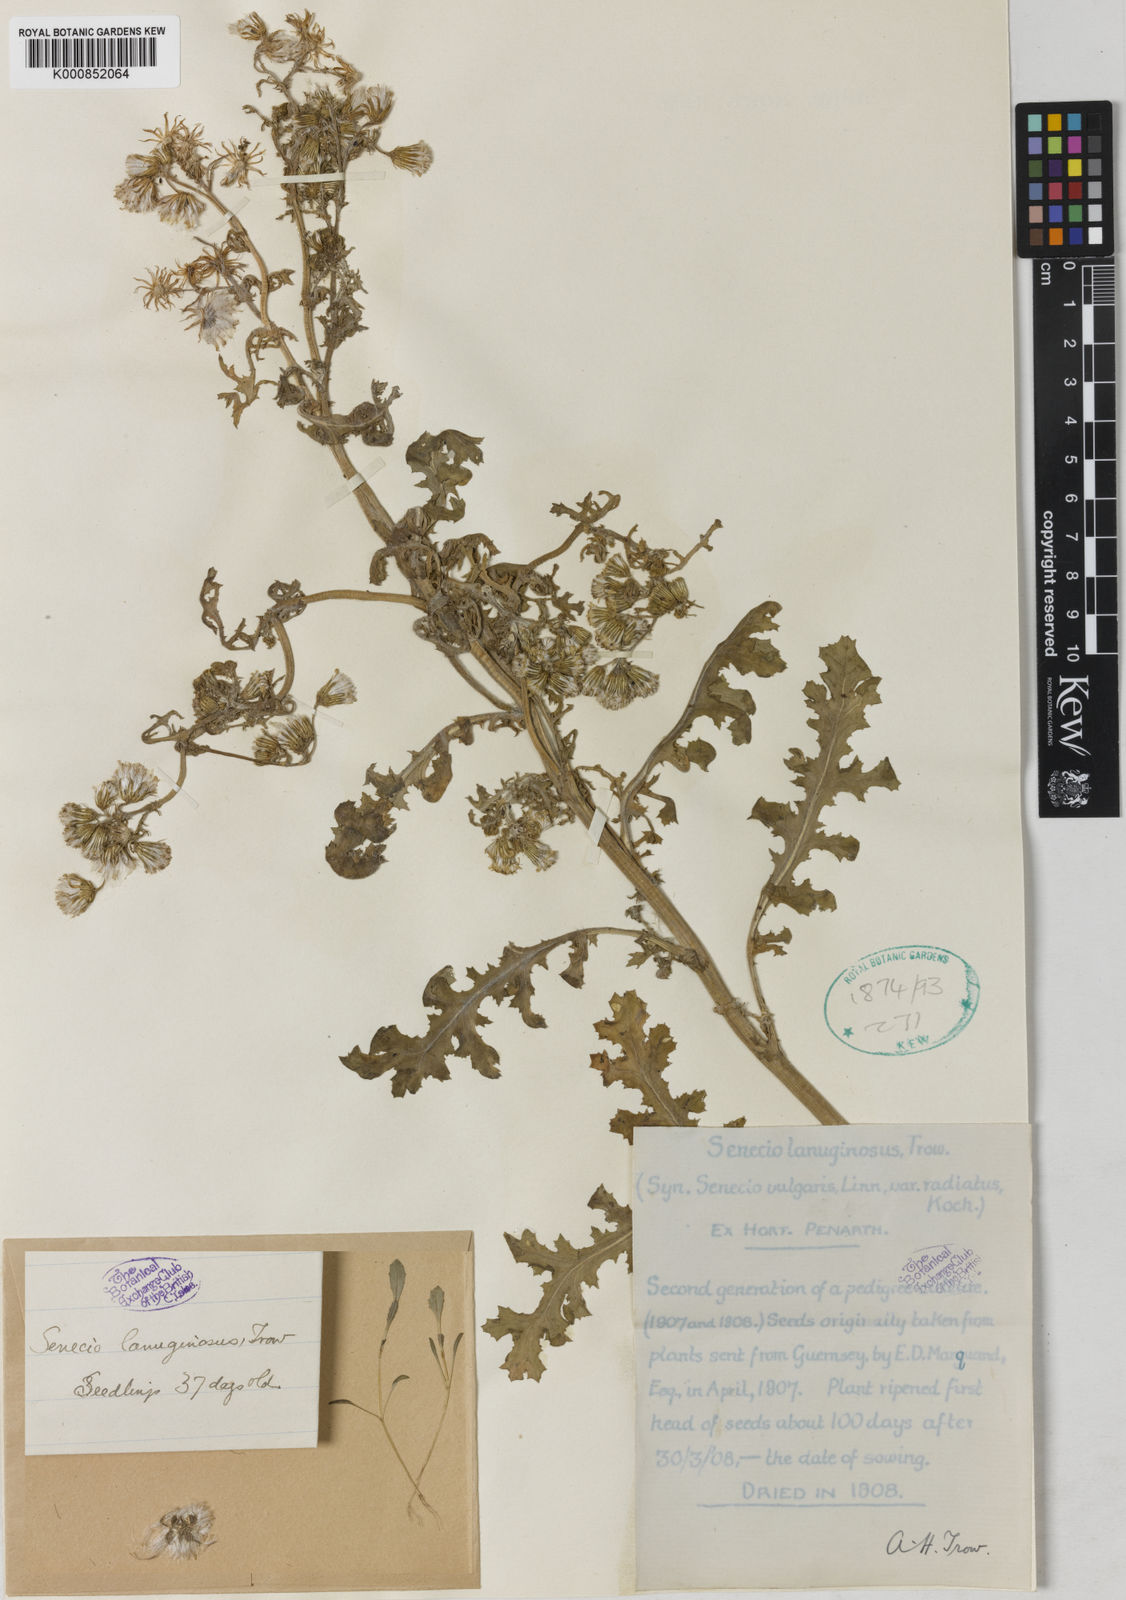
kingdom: Plantae
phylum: Tracheophyta
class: Magnoliopsida
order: Asterales
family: Asteraceae
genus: Senecio
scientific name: Senecio vulgaris
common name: Old-man-in-the-spring
